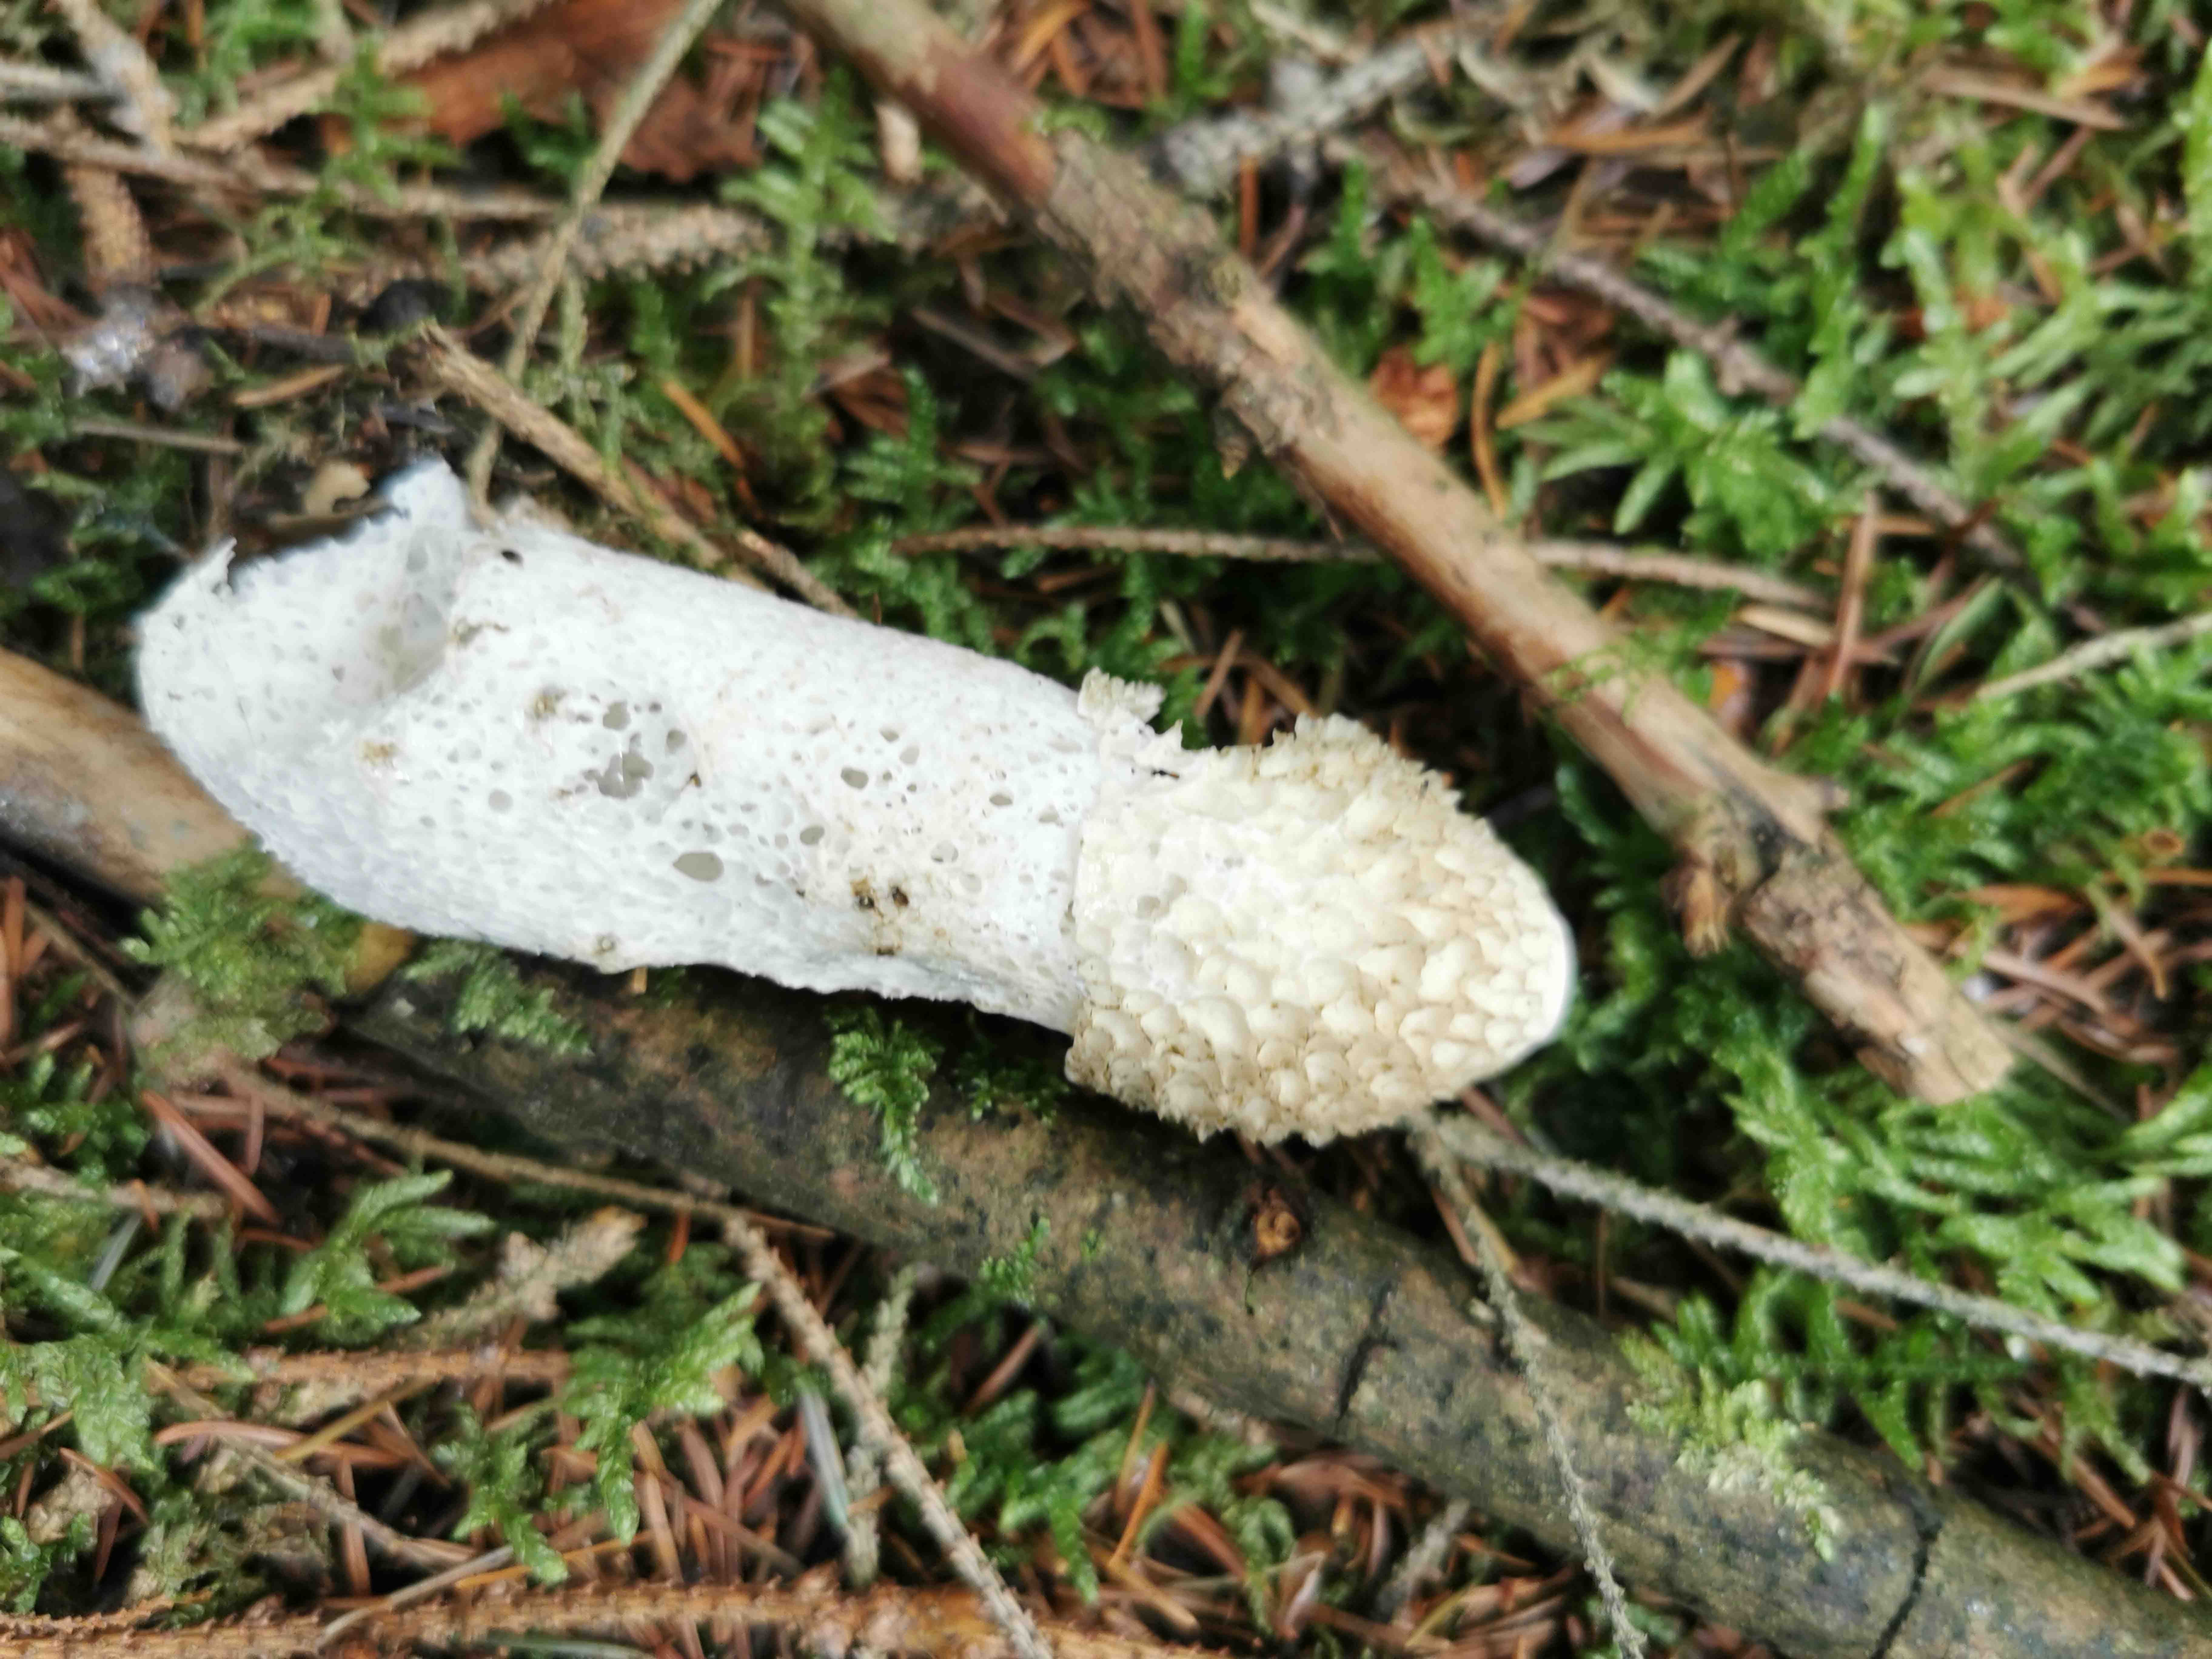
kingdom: Fungi
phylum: Basidiomycota
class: Agaricomycetes
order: Phallales
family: Phallaceae
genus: Phallus
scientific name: Phallus impudicus
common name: almindelig stinksvamp
